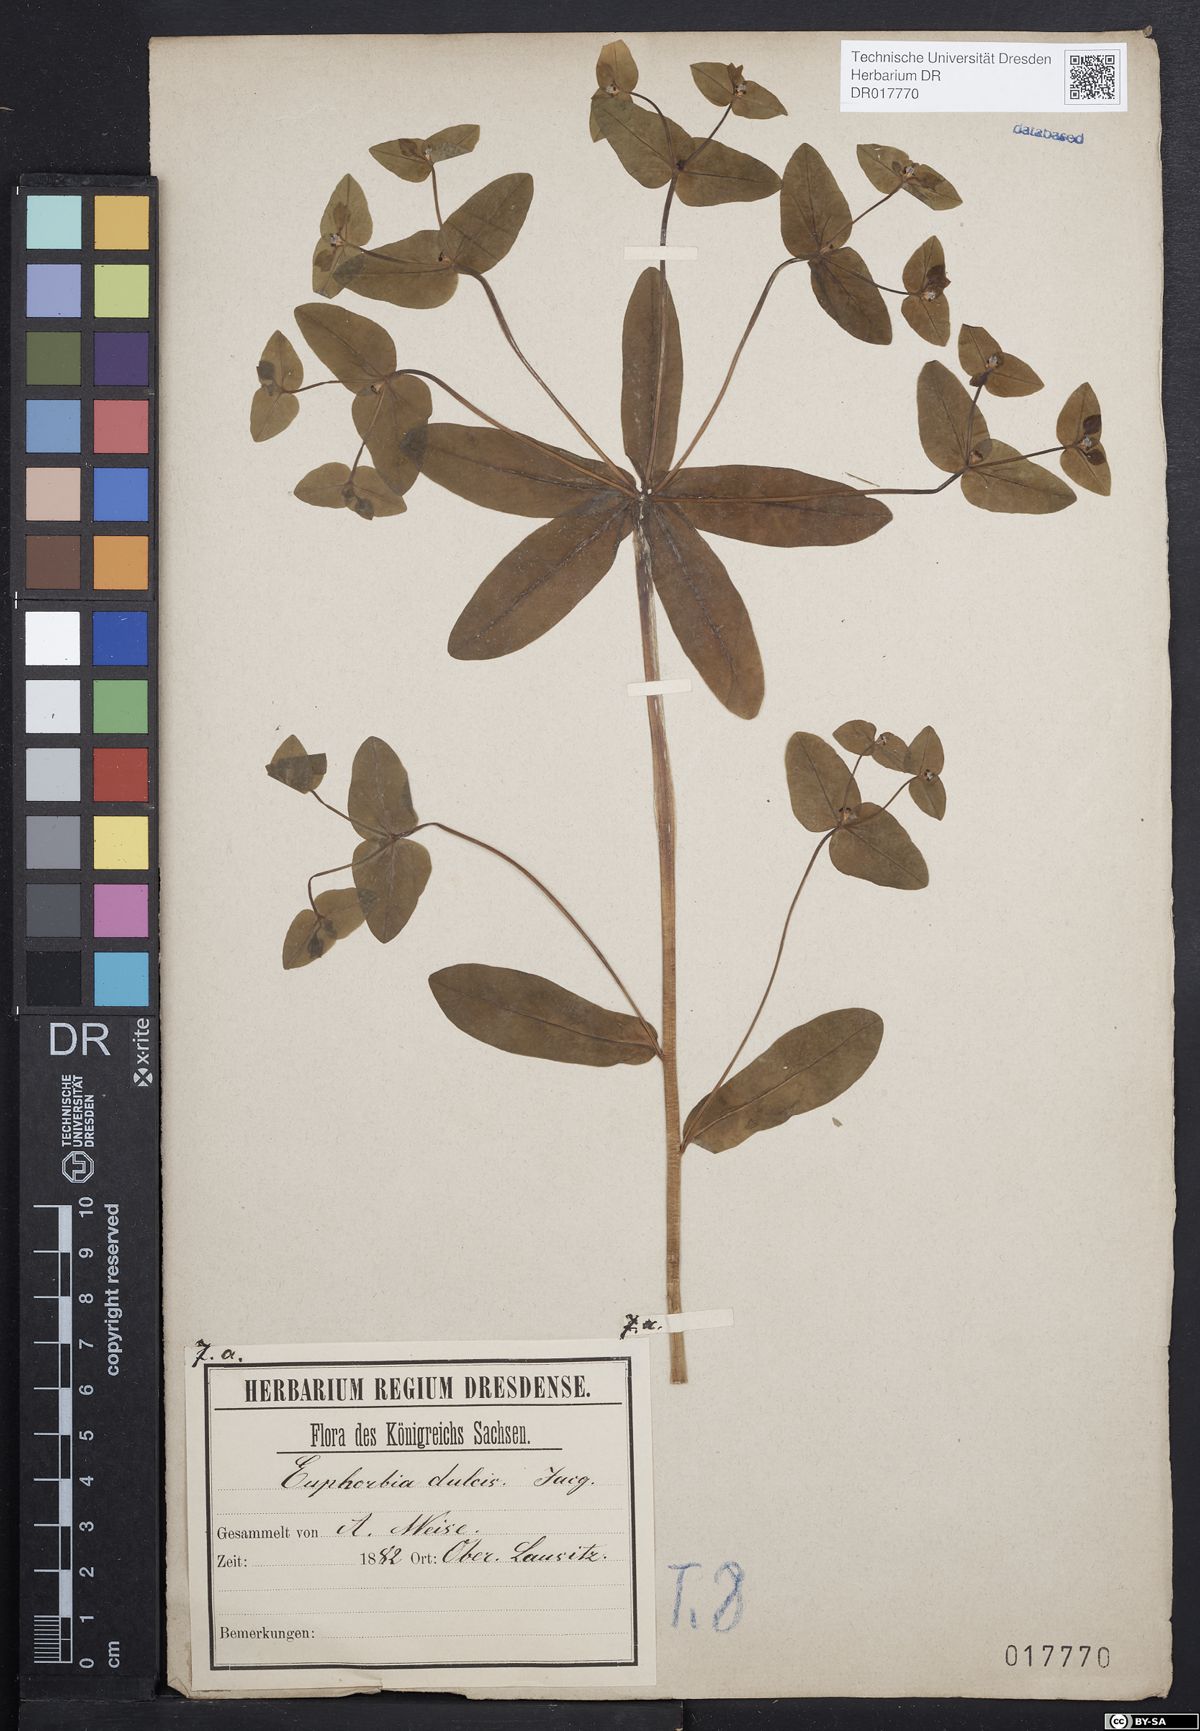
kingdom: Plantae
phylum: Tracheophyta
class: Magnoliopsida
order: Malpighiales
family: Euphorbiaceae
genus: Euphorbia
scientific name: Euphorbia dulcis
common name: Sweet spurge
